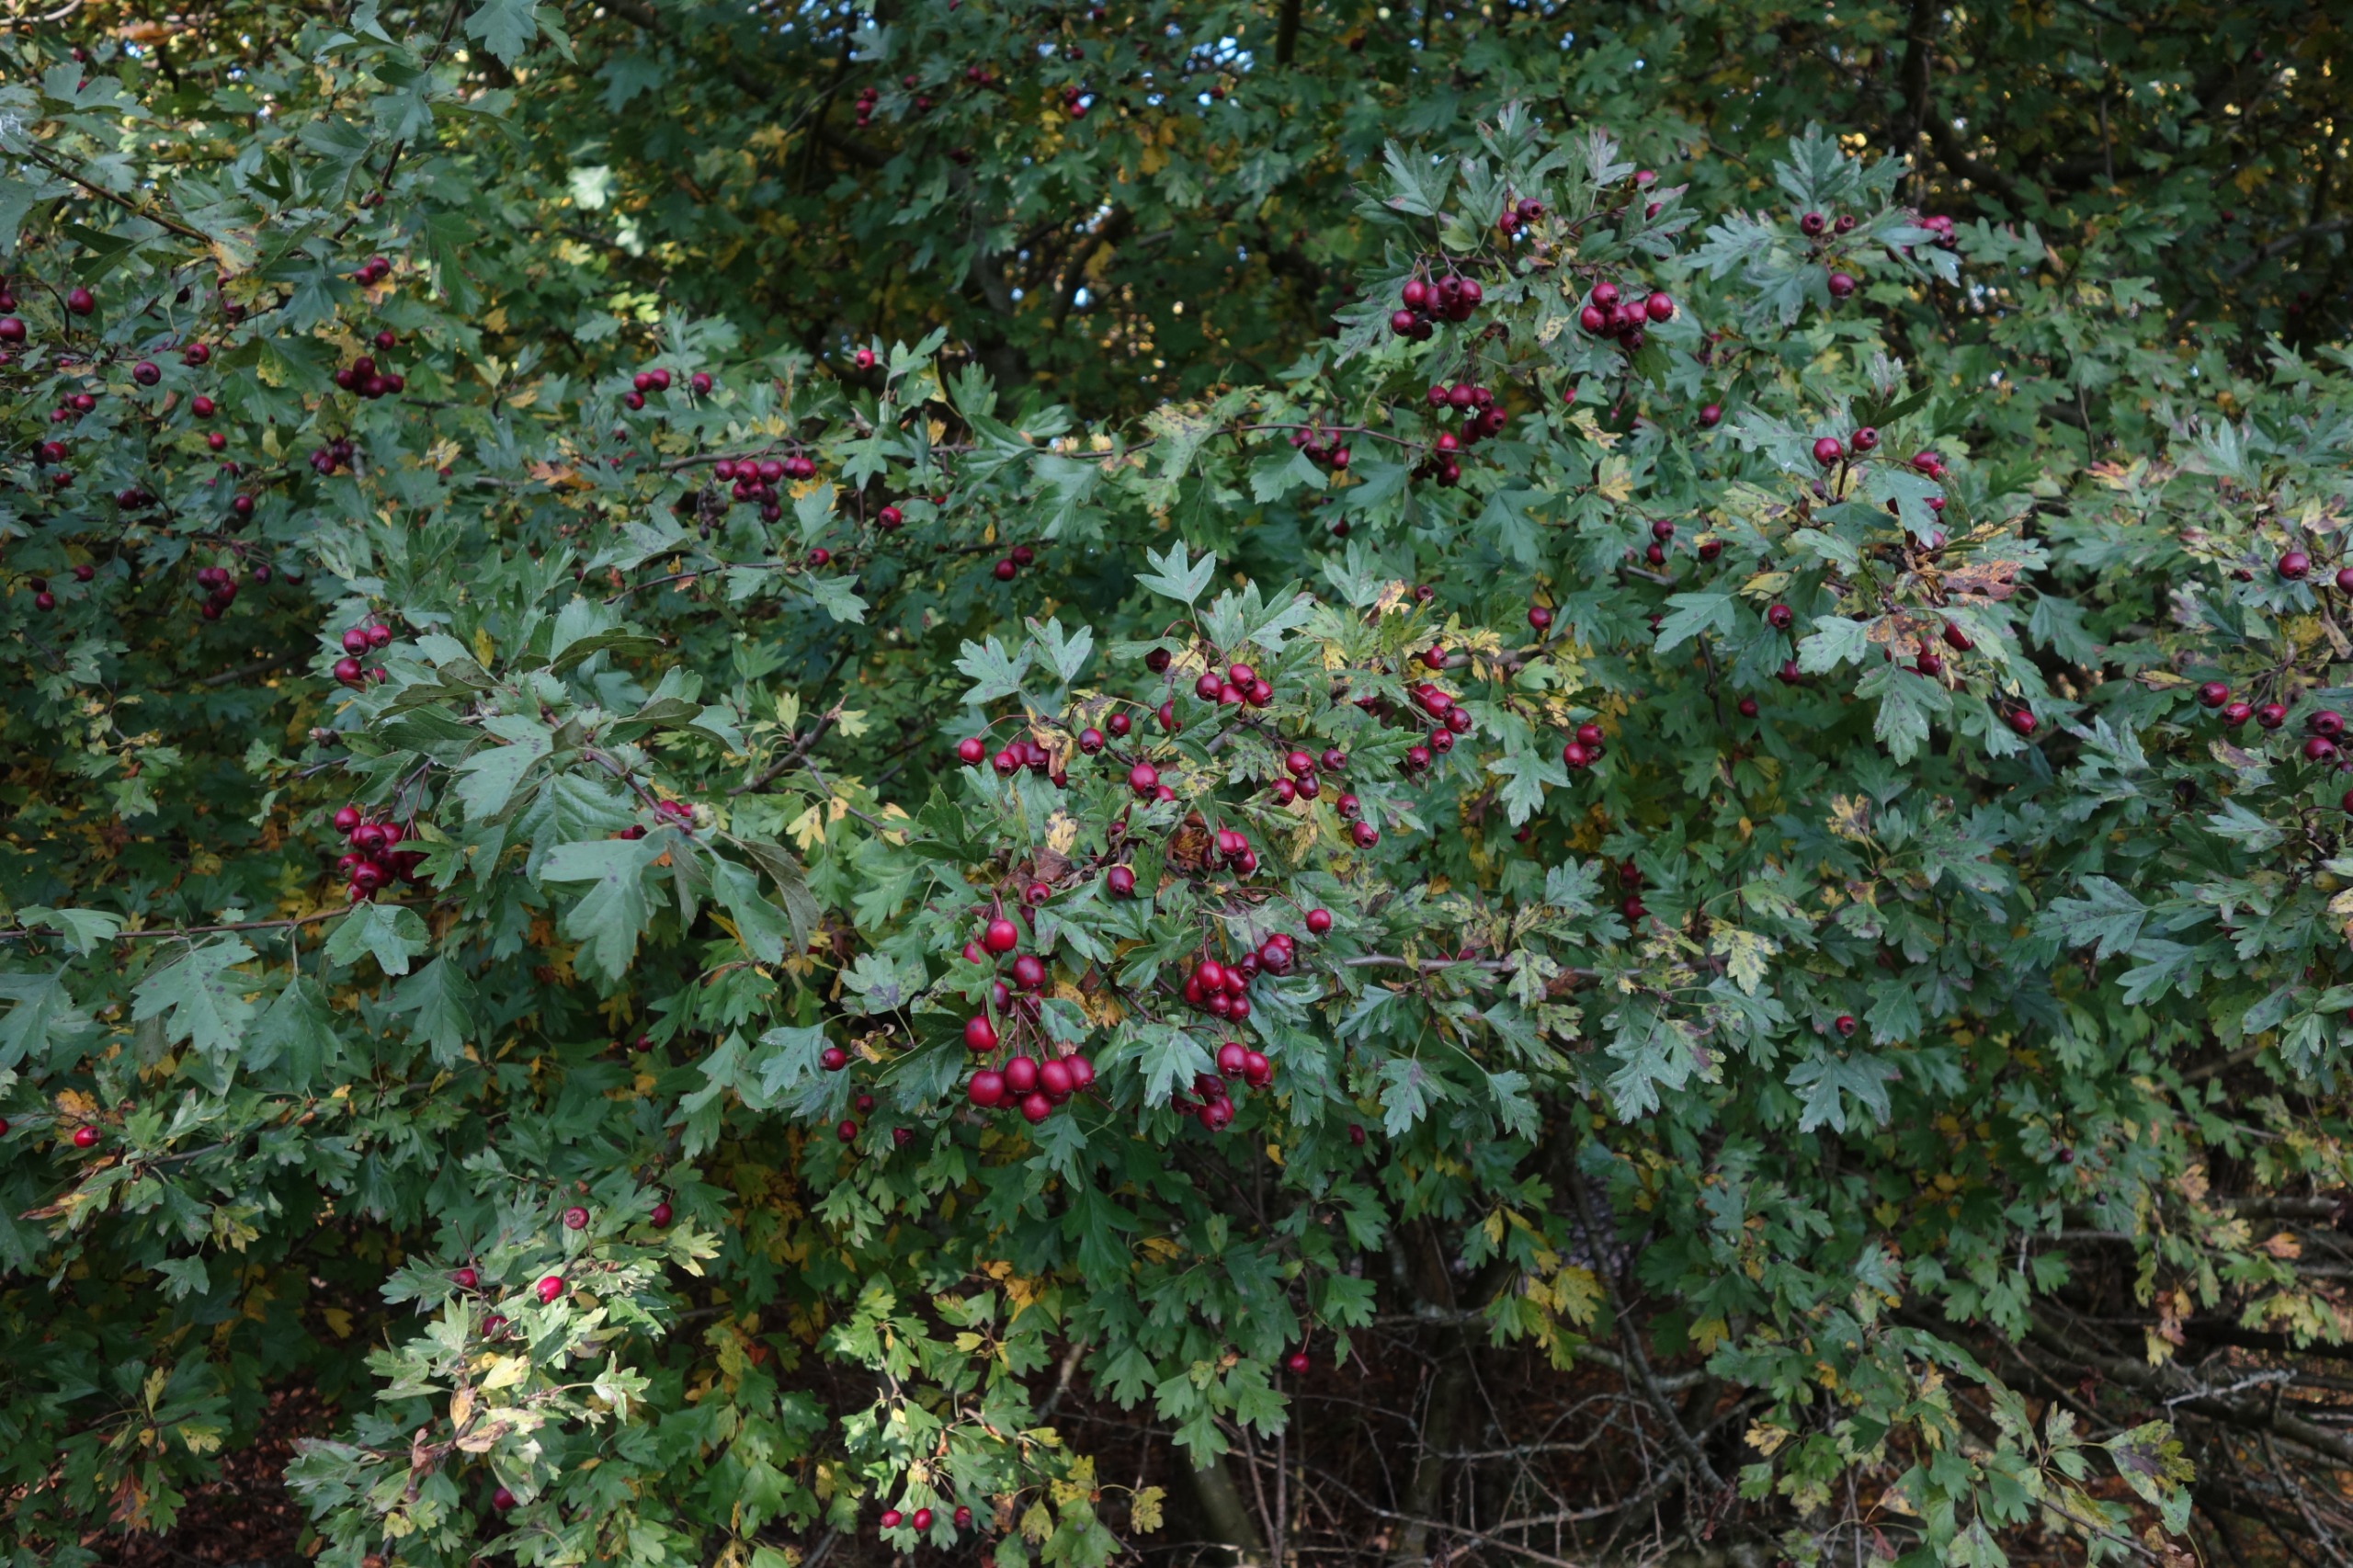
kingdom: Plantae
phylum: Tracheophyta
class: Magnoliopsida
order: Rosales
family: Rosaceae
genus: Crataegus
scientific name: Crataegus monogyna
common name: Engriflet hvidtjørn
